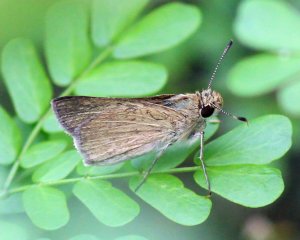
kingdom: Animalia
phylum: Arthropoda
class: Insecta
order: Lepidoptera
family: Hesperiidae
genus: Nastra
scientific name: Nastra julia
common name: Julia's Skipper
